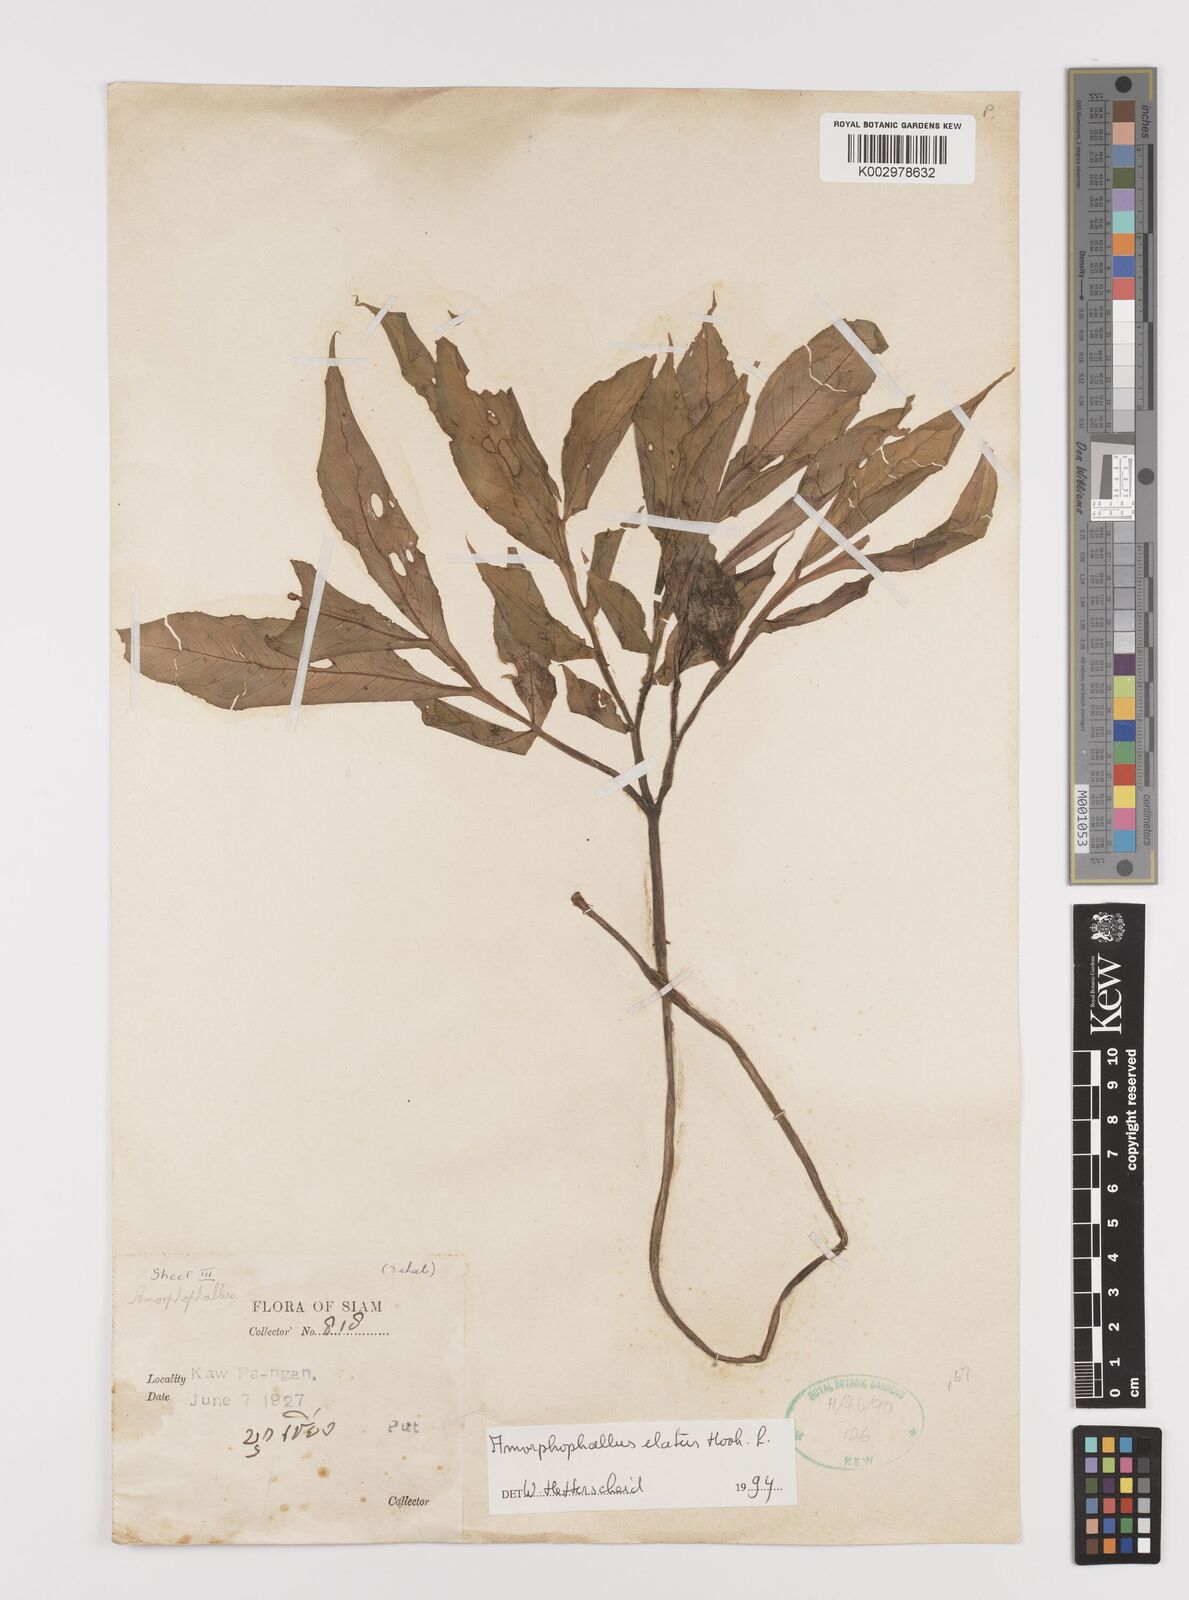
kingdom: Plantae
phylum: Tracheophyta
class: Liliopsida
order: Alismatales
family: Araceae
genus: Amorphophallus
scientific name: Amorphophallus elatus
